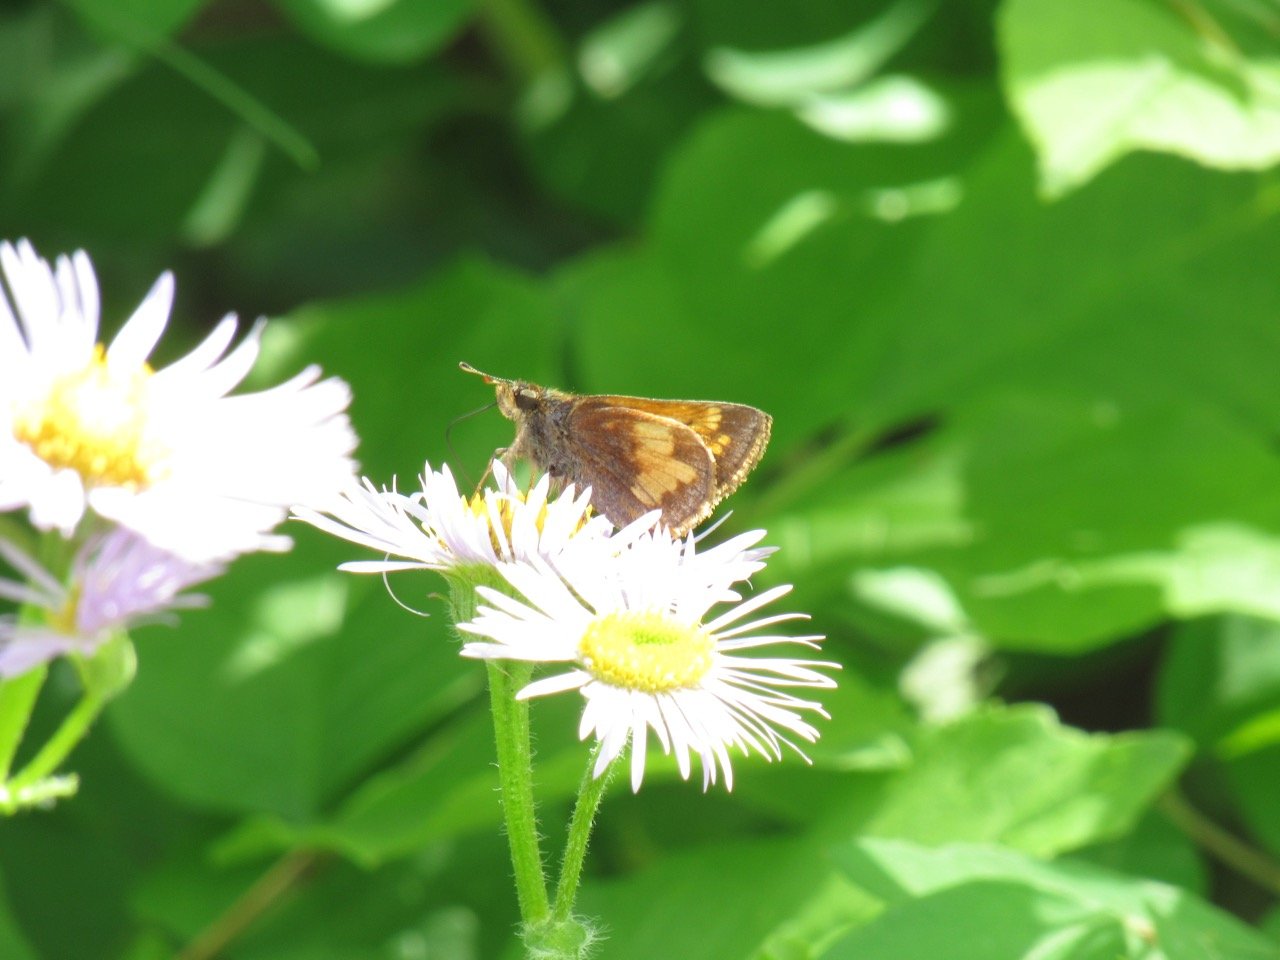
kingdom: Animalia
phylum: Arthropoda
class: Insecta
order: Lepidoptera
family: Hesperiidae
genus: Lon
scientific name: Lon hobomok
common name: Hobomok Skipper
